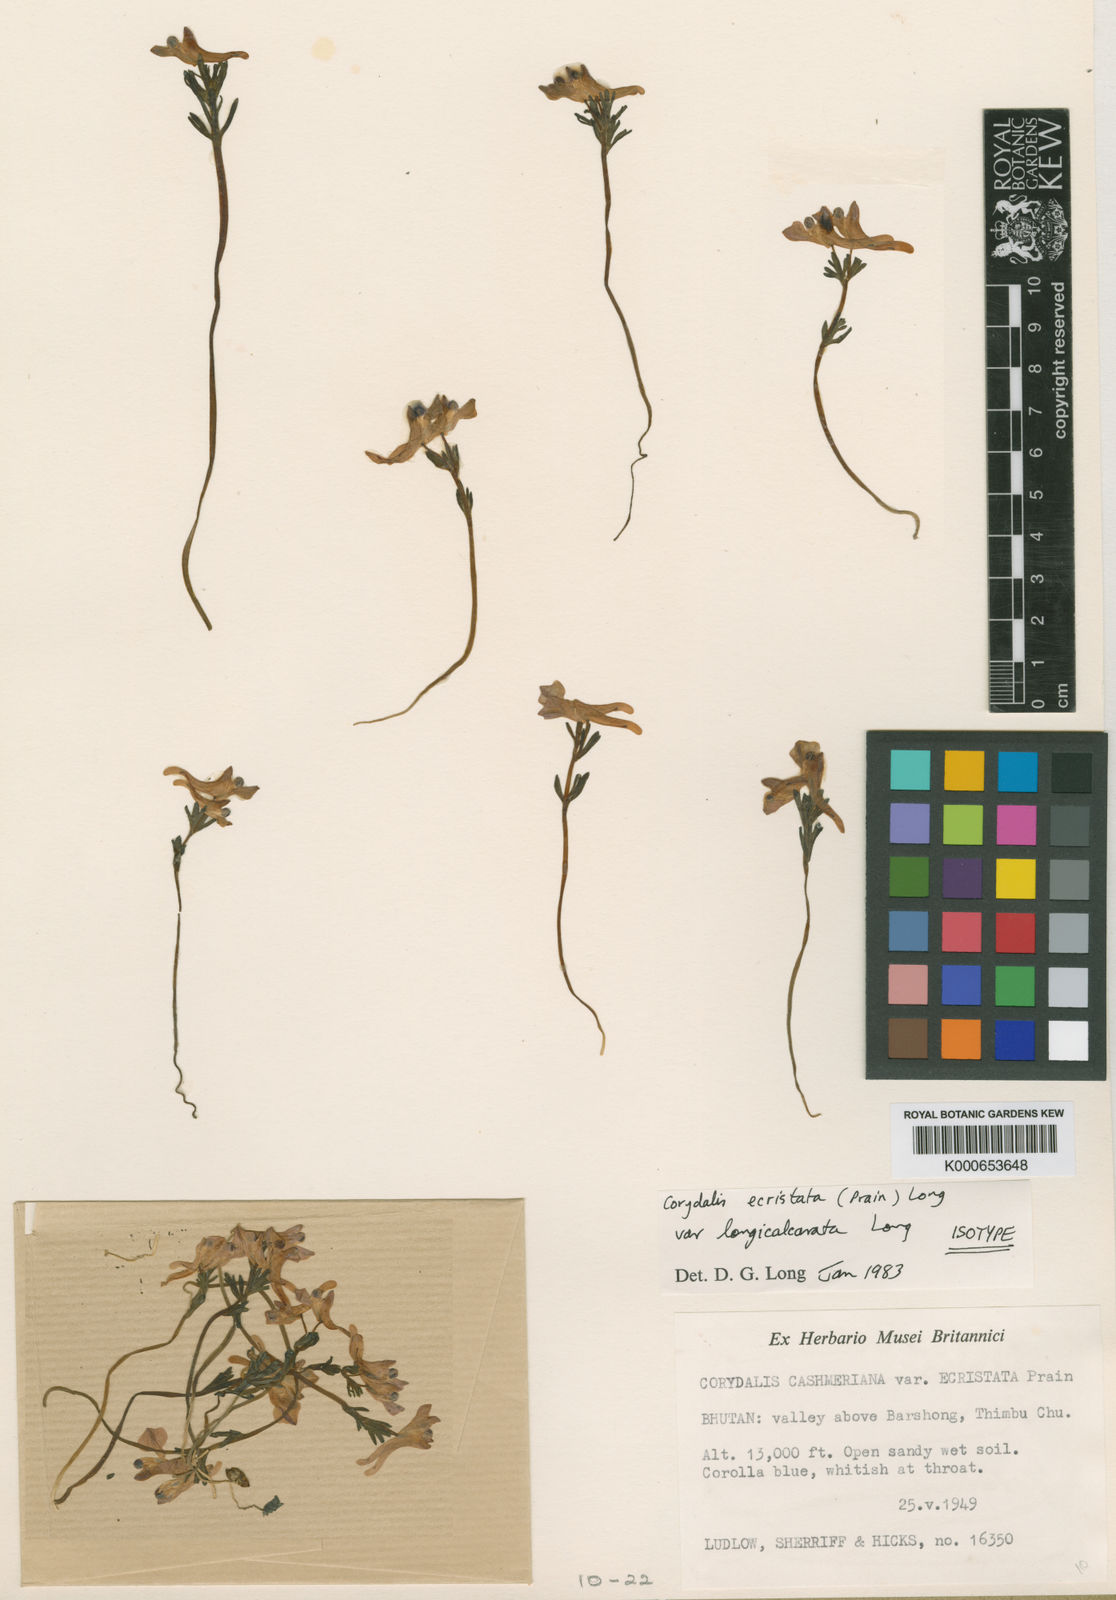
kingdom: Plantae
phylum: Tracheophyta
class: Magnoliopsida
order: Ranunculales
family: Papaveraceae
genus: Corydalis
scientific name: Corydalis cashmeriana
